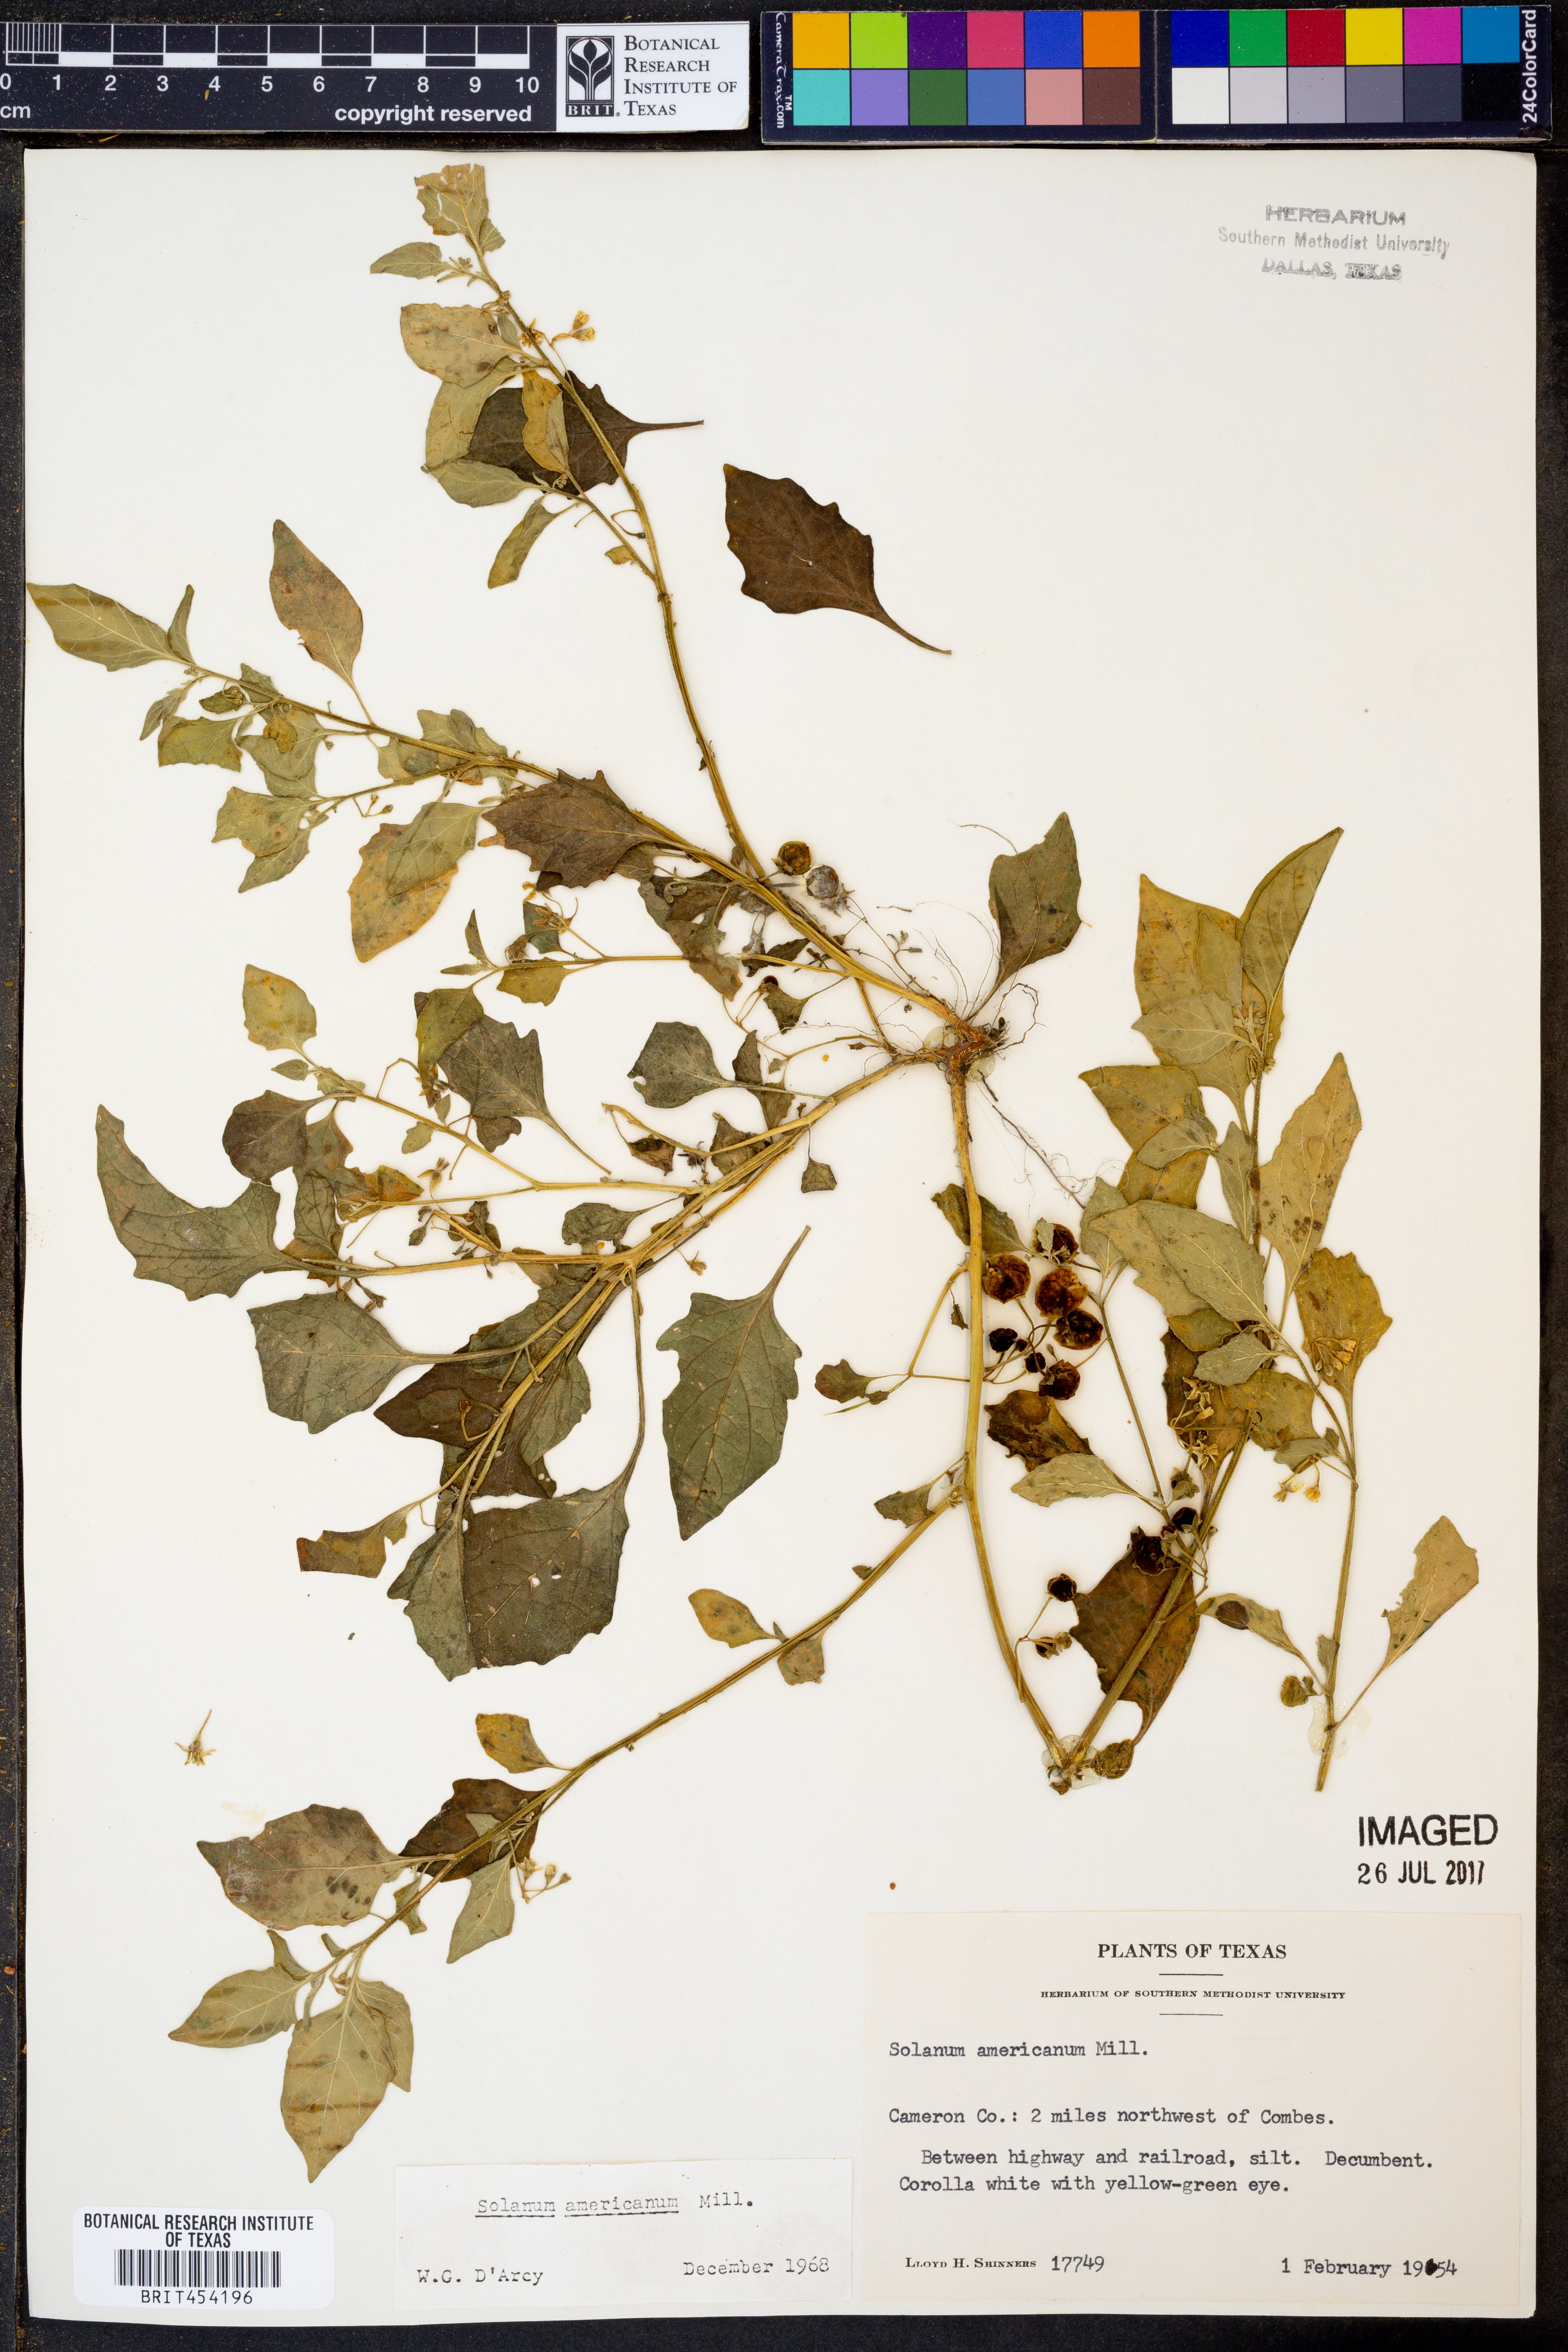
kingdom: Plantae
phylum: Tracheophyta
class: Magnoliopsida
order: Solanales
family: Solanaceae
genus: Solanum
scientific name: Solanum americanum
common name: American black nightshade
